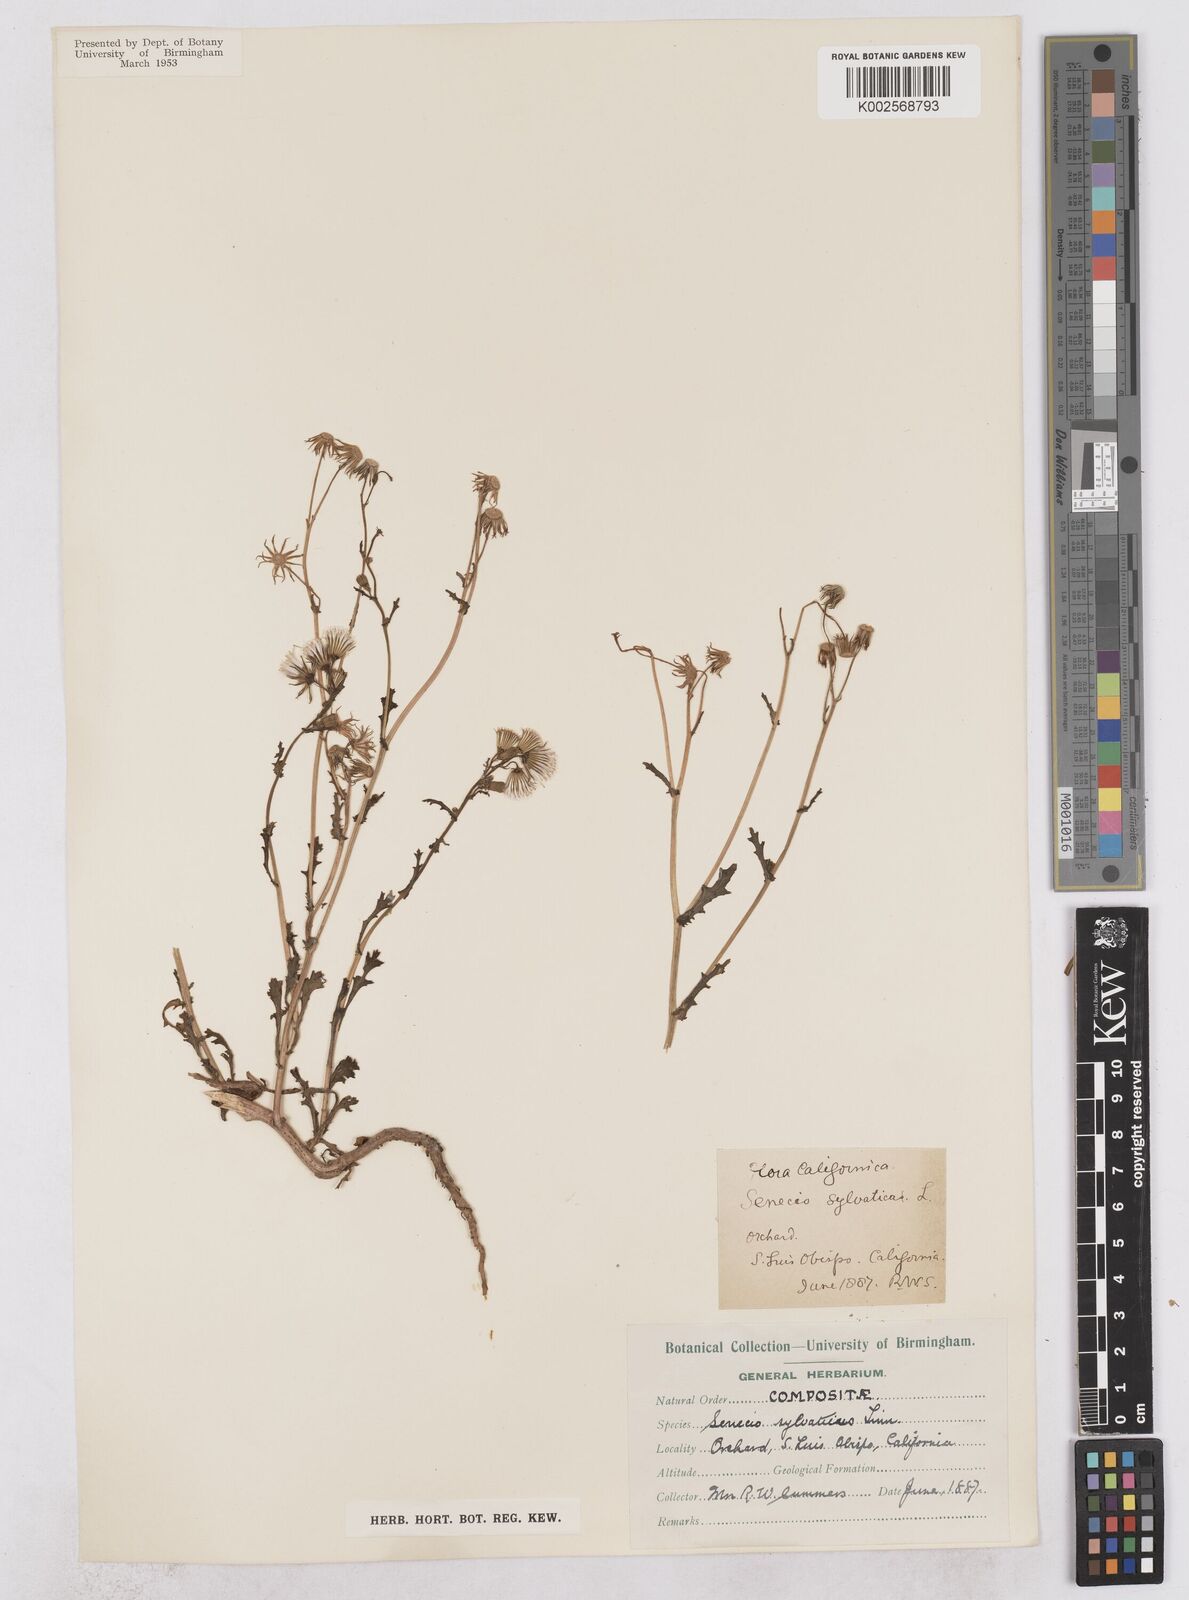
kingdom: Plantae
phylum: Tracheophyta
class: Magnoliopsida
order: Asterales
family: Asteraceae
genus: Senecio
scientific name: Senecio sylvaticus
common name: Woodland ragwort
